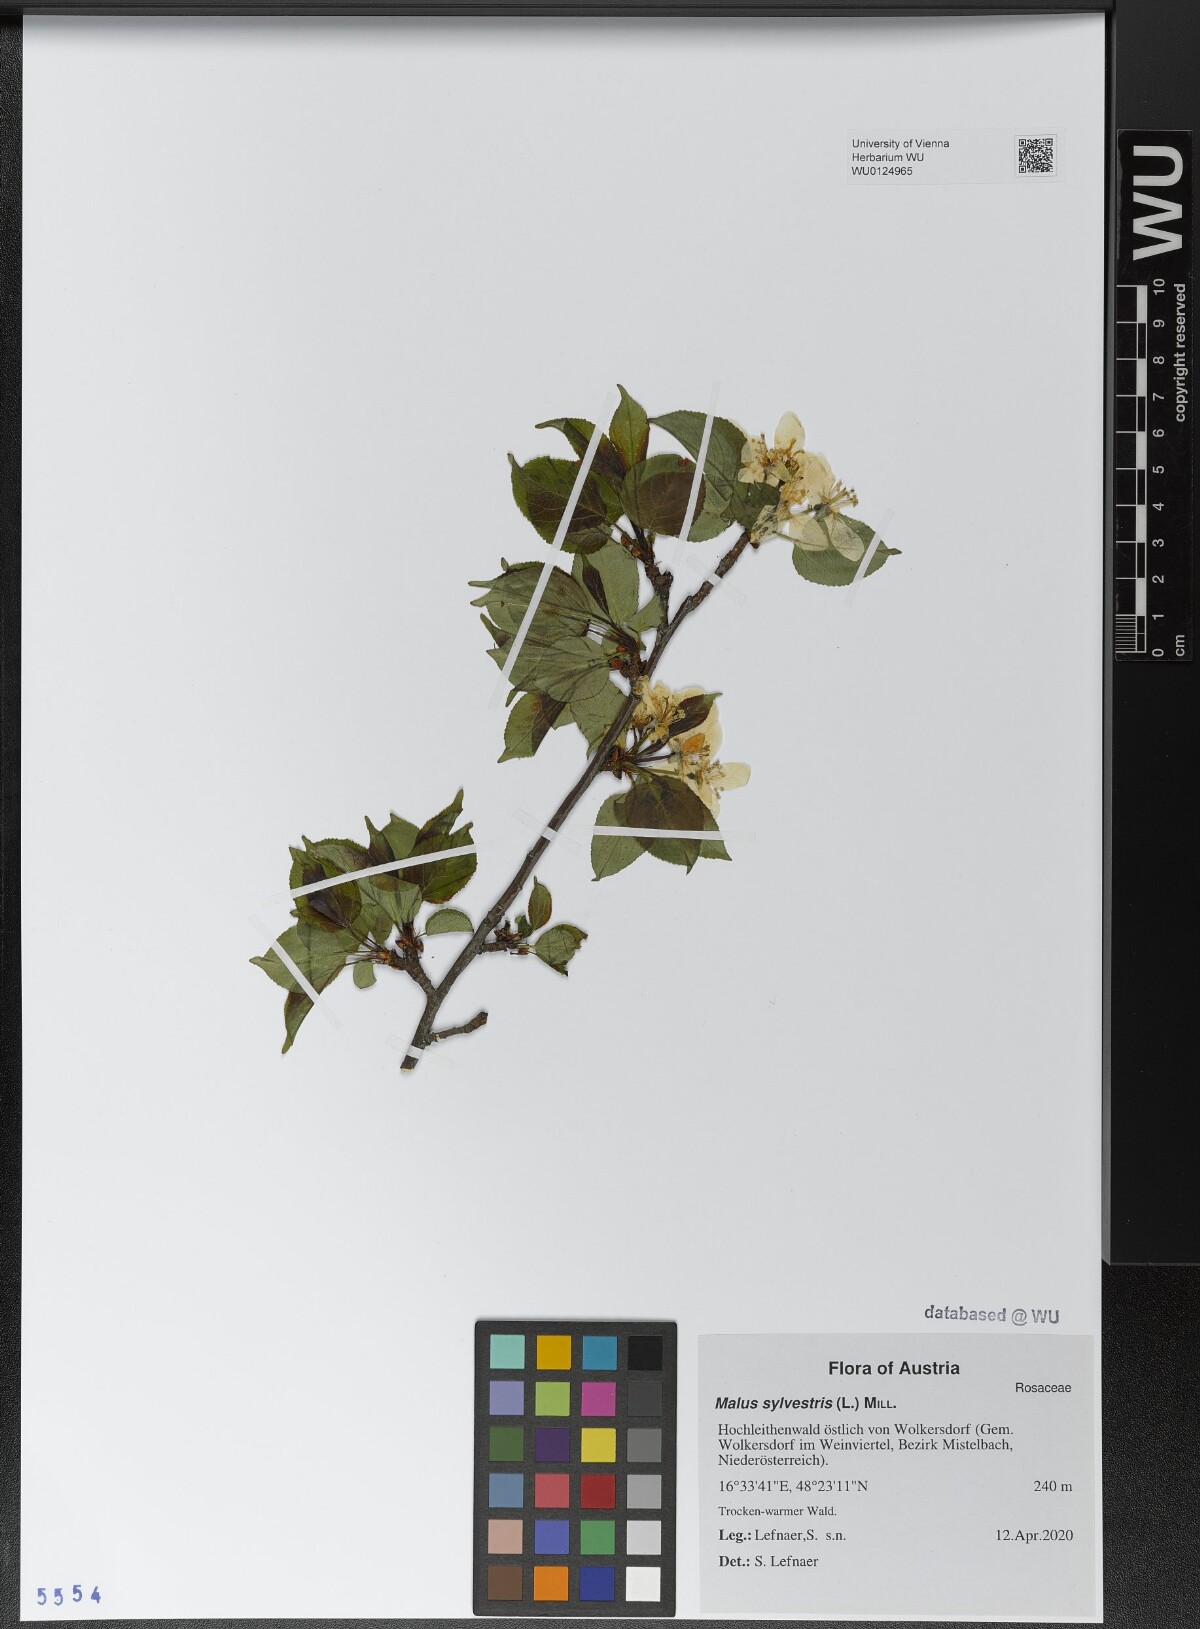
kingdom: Plantae
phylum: Tracheophyta
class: Magnoliopsida
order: Rosales
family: Rosaceae
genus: Malus
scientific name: Malus sylvestris
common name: Crab apple
